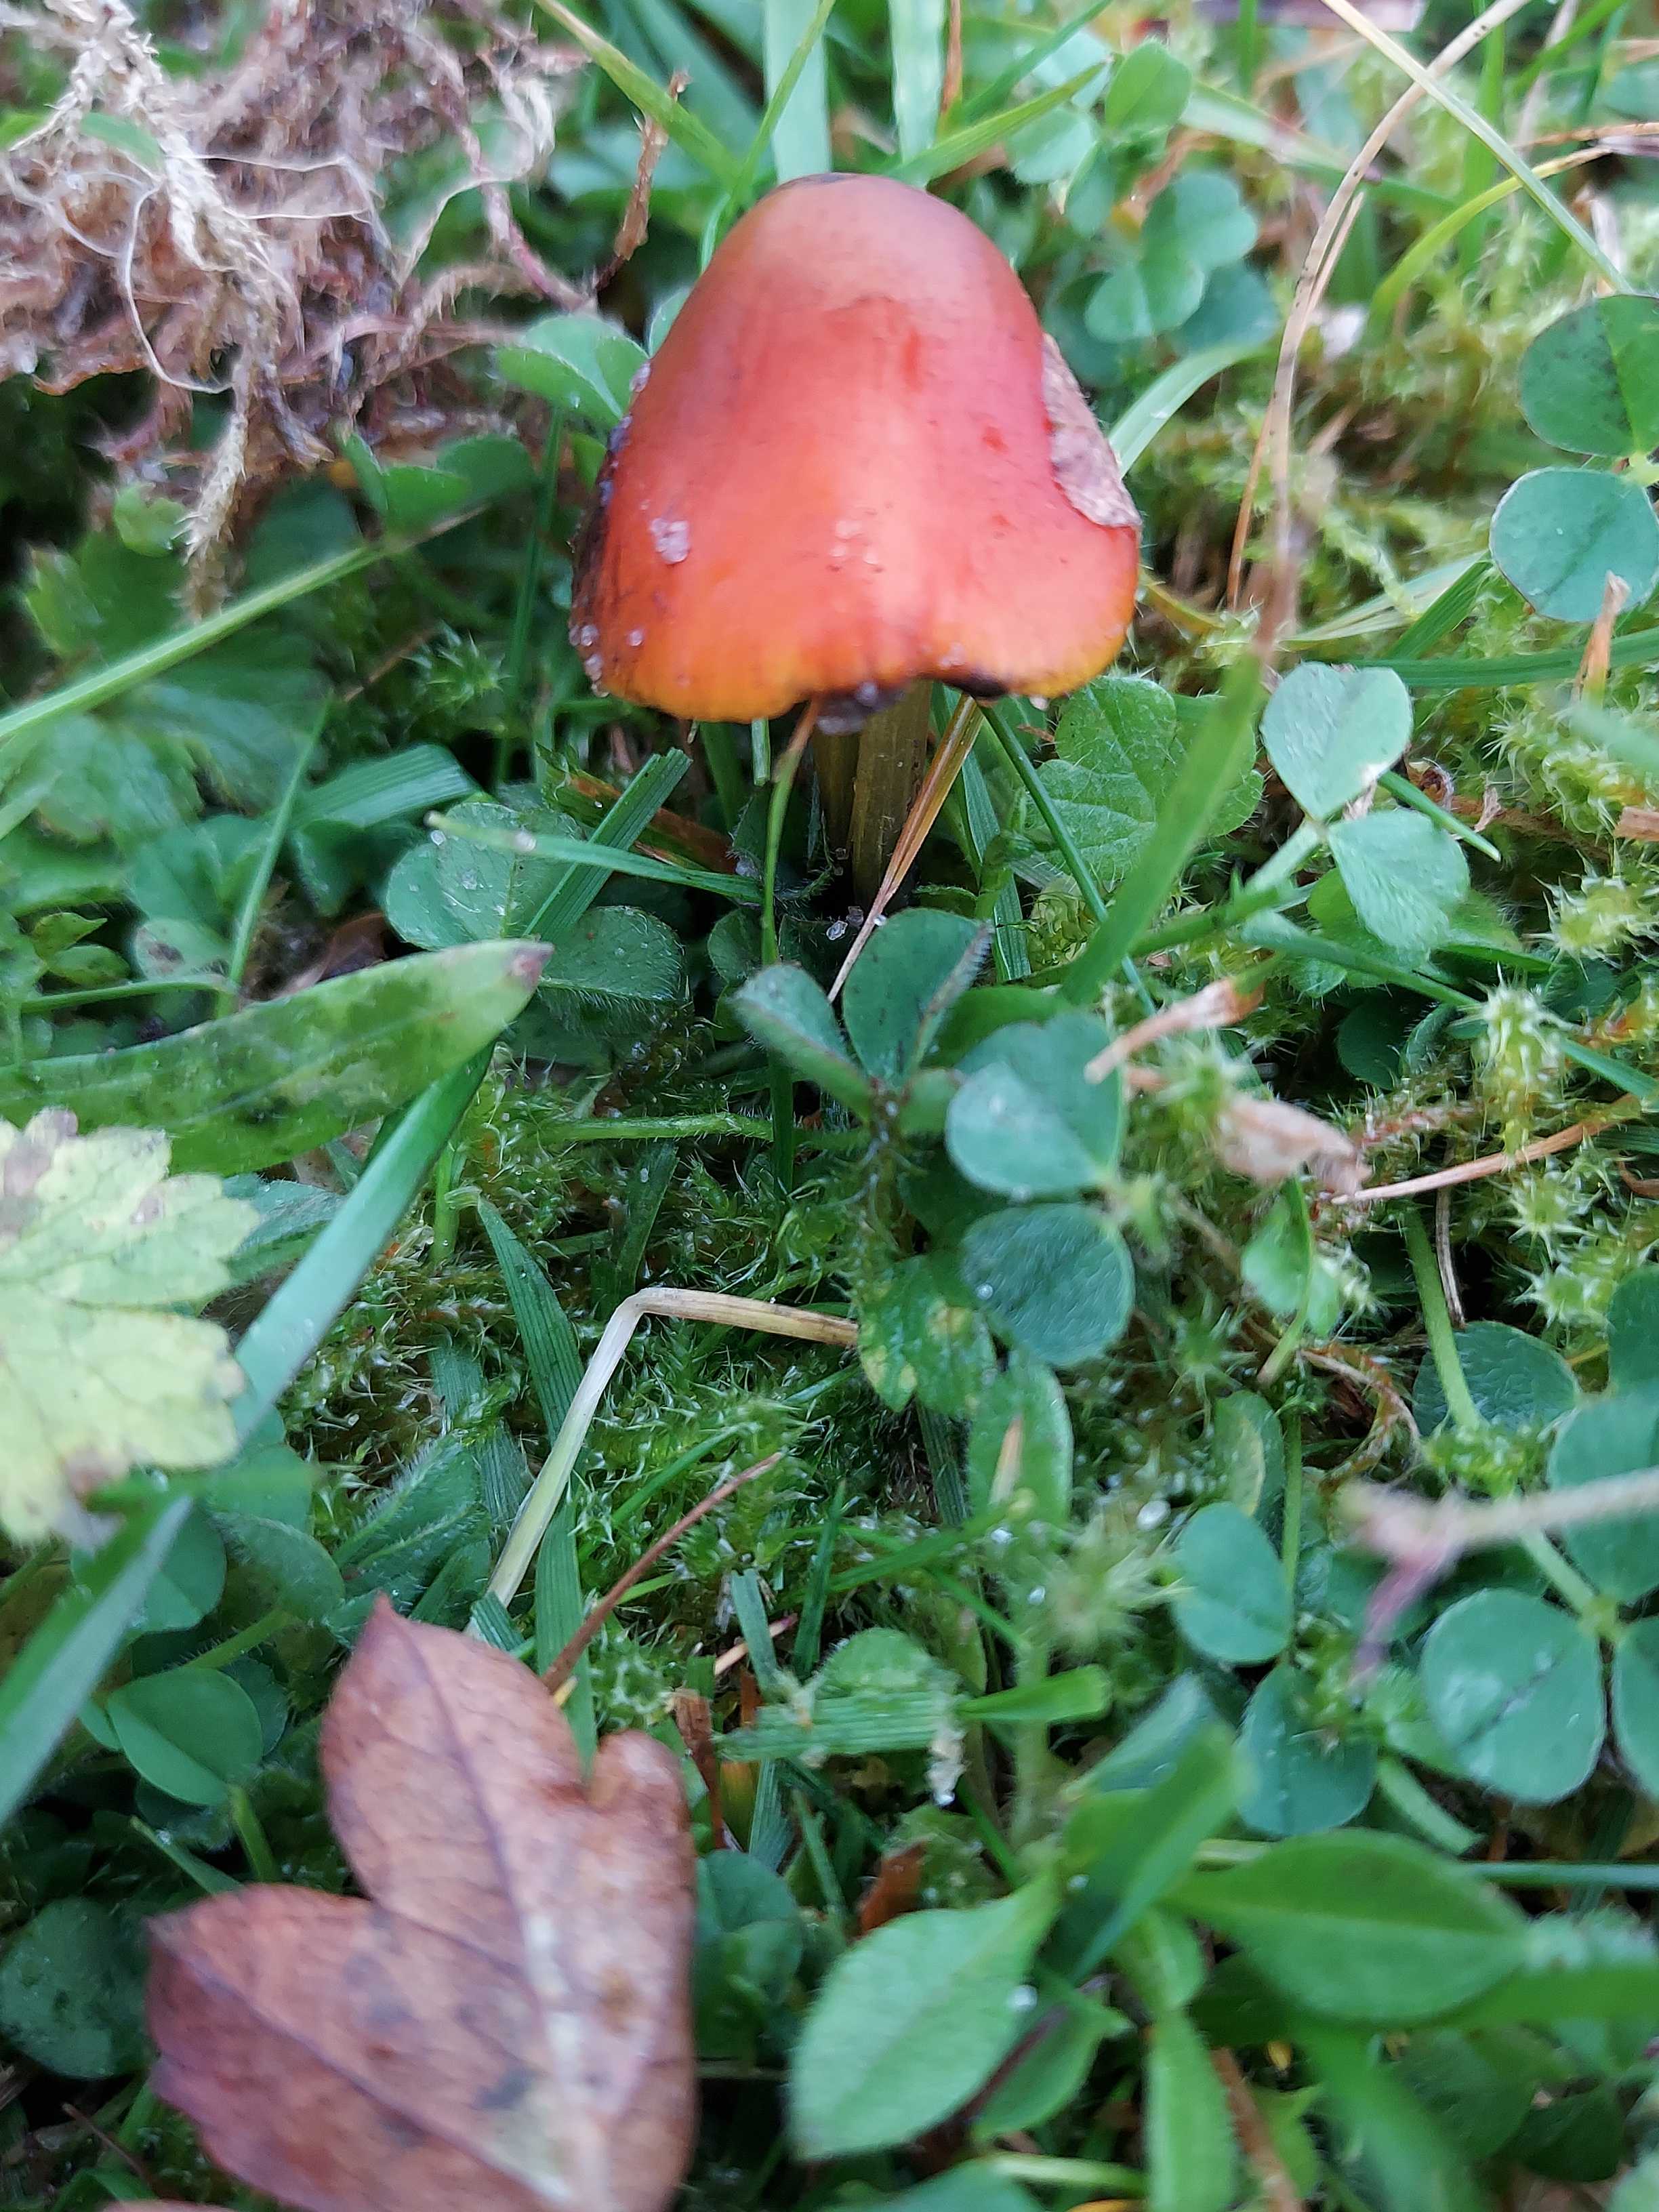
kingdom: Fungi
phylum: Basidiomycota
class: Agaricomycetes
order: Agaricales
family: Hygrophoraceae
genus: Hygrocybe
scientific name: Hygrocybe conica
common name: kegle-vokshat
